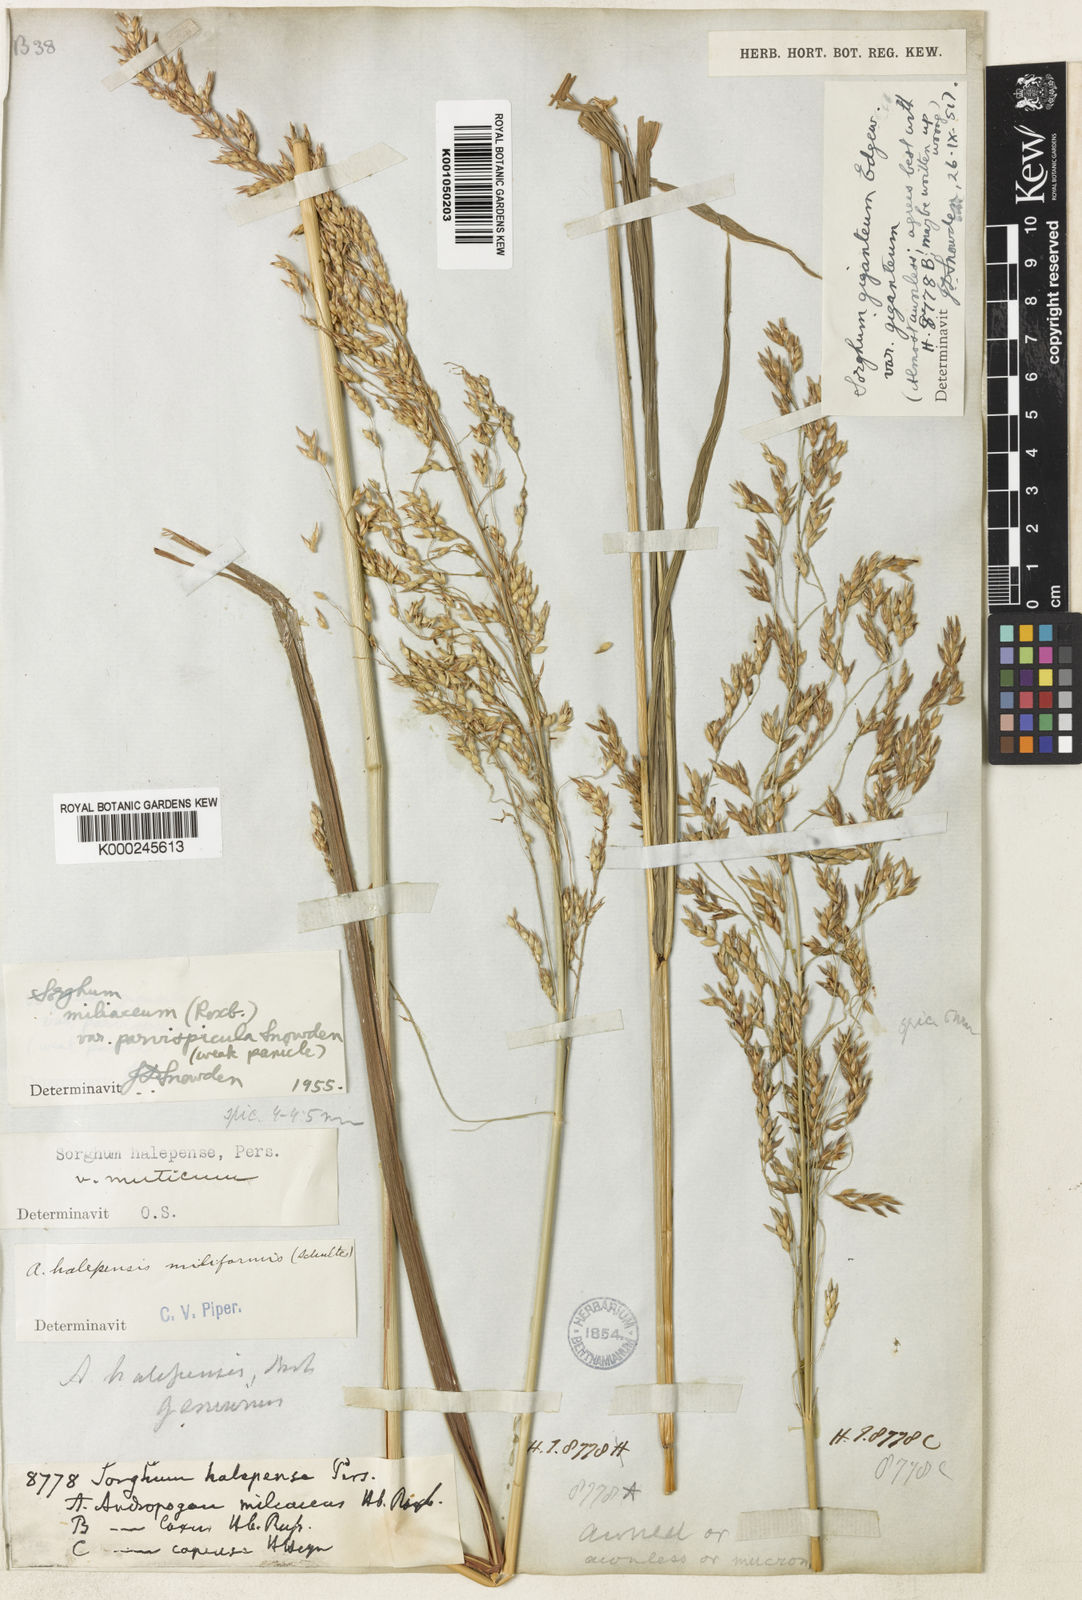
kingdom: Plantae
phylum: Tracheophyta
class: Liliopsida
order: Poales
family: Poaceae
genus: Sorghum
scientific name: Sorghum halepense
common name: Johnson-grass
